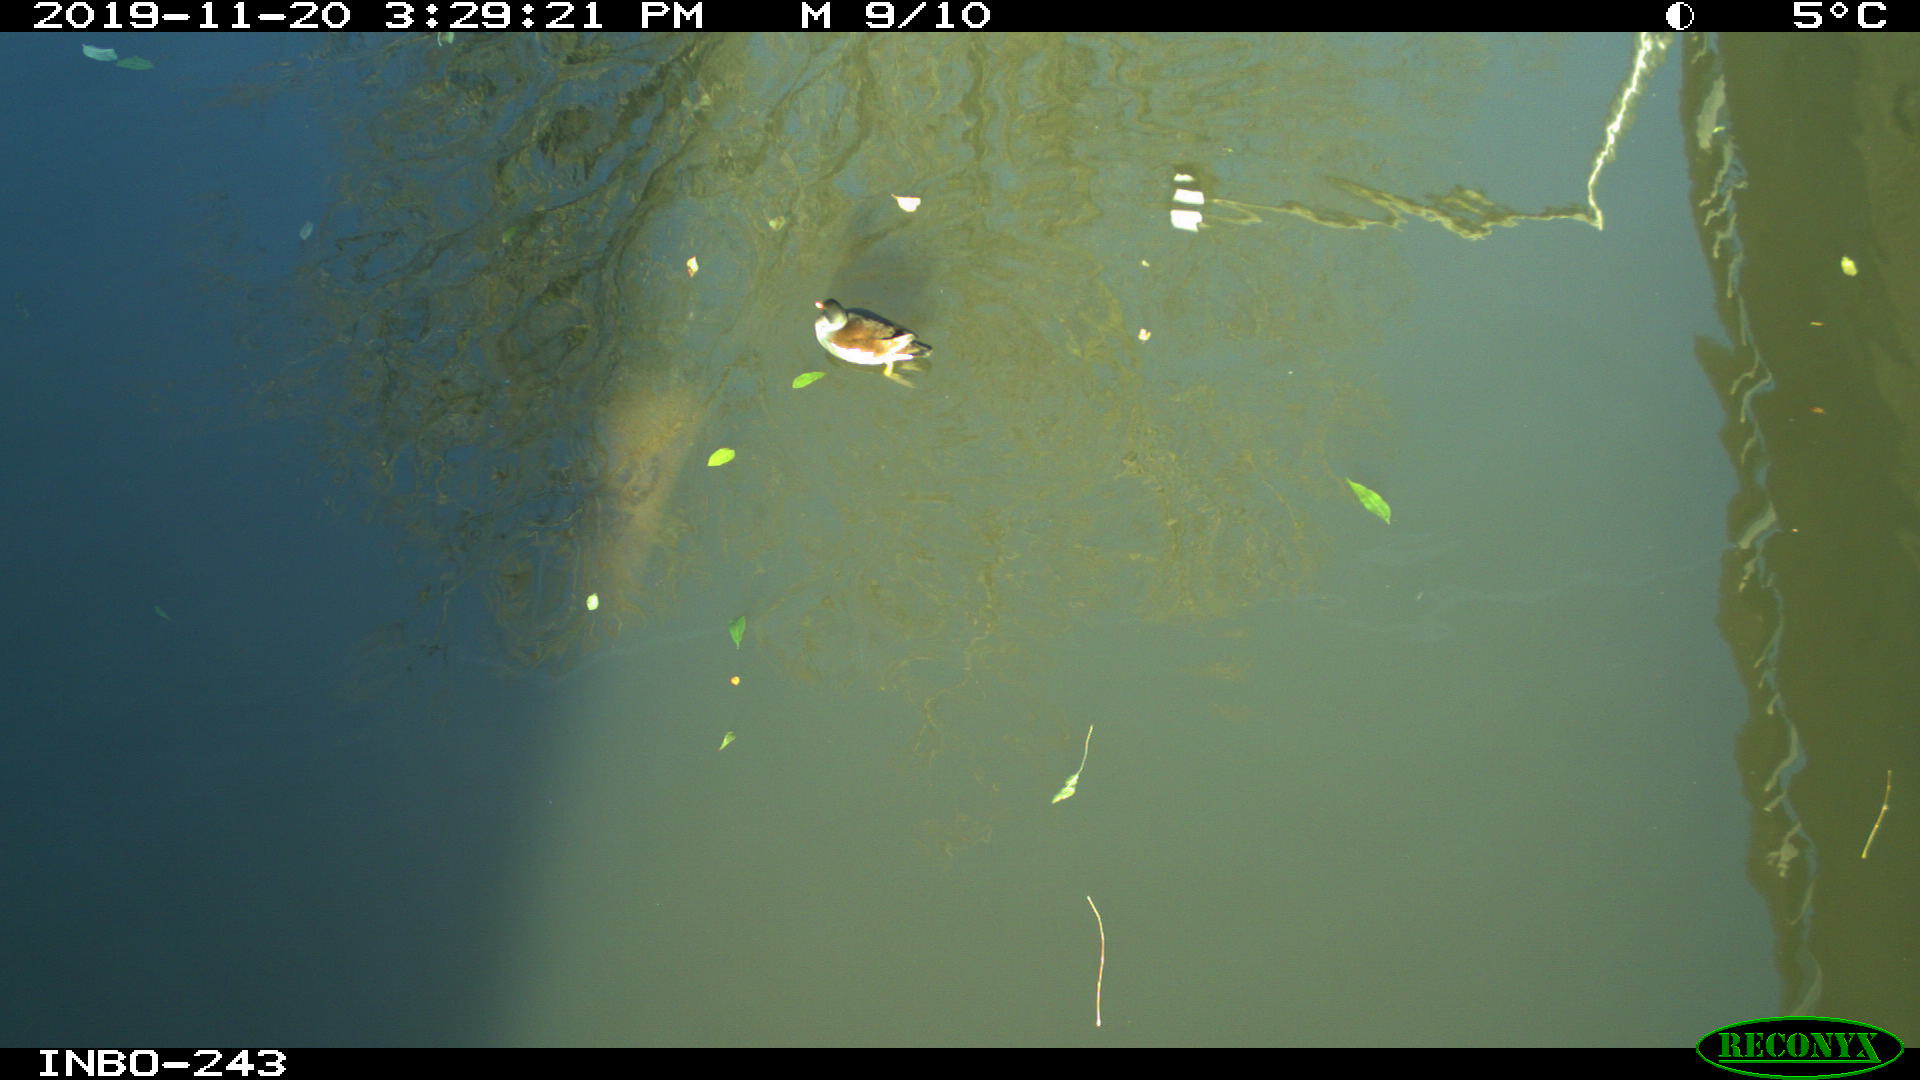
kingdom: Animalia
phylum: Chordata
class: Aves
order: Gruiformes
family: Rallidae
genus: Gallinula
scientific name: Gallinula chloropus
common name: Common moorhen
